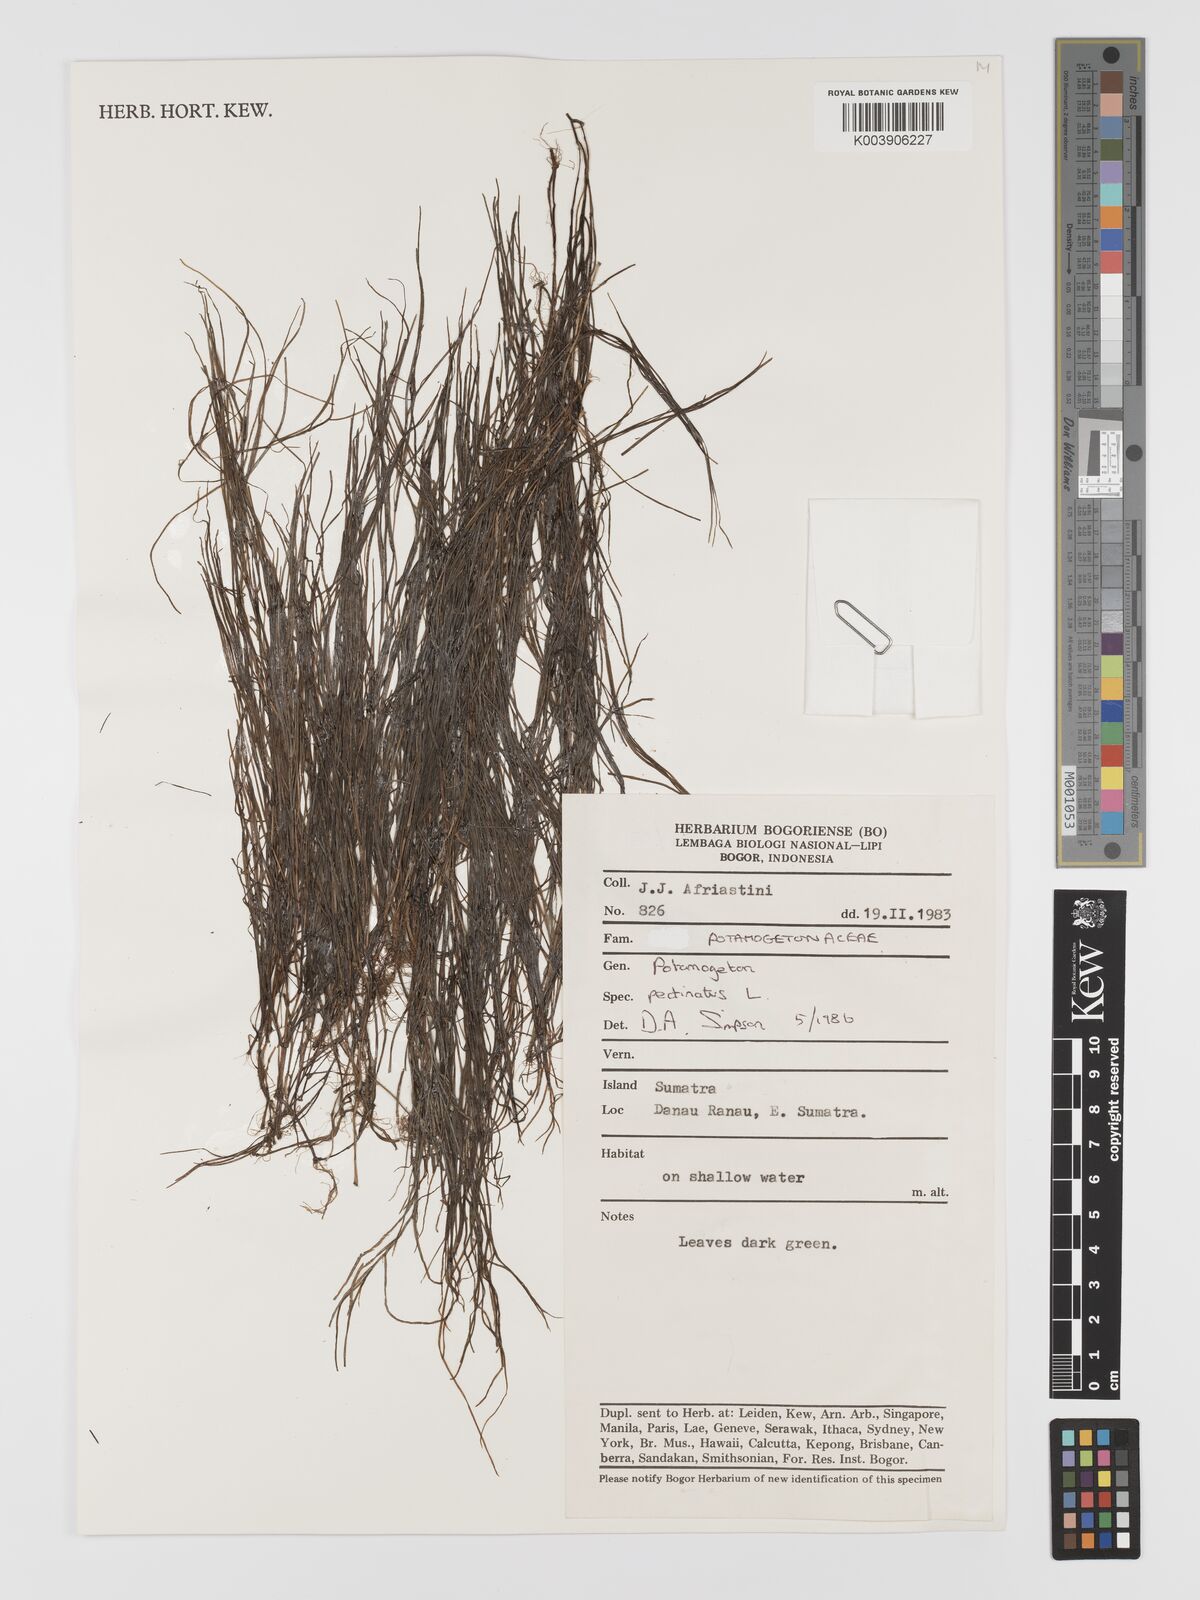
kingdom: Plantae
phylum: Tracheophyta
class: Liliopsida
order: Alismatales
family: Potamogetonaceae
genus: Stuckenia
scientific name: Stuckenia pectinata
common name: Sago pondweed
